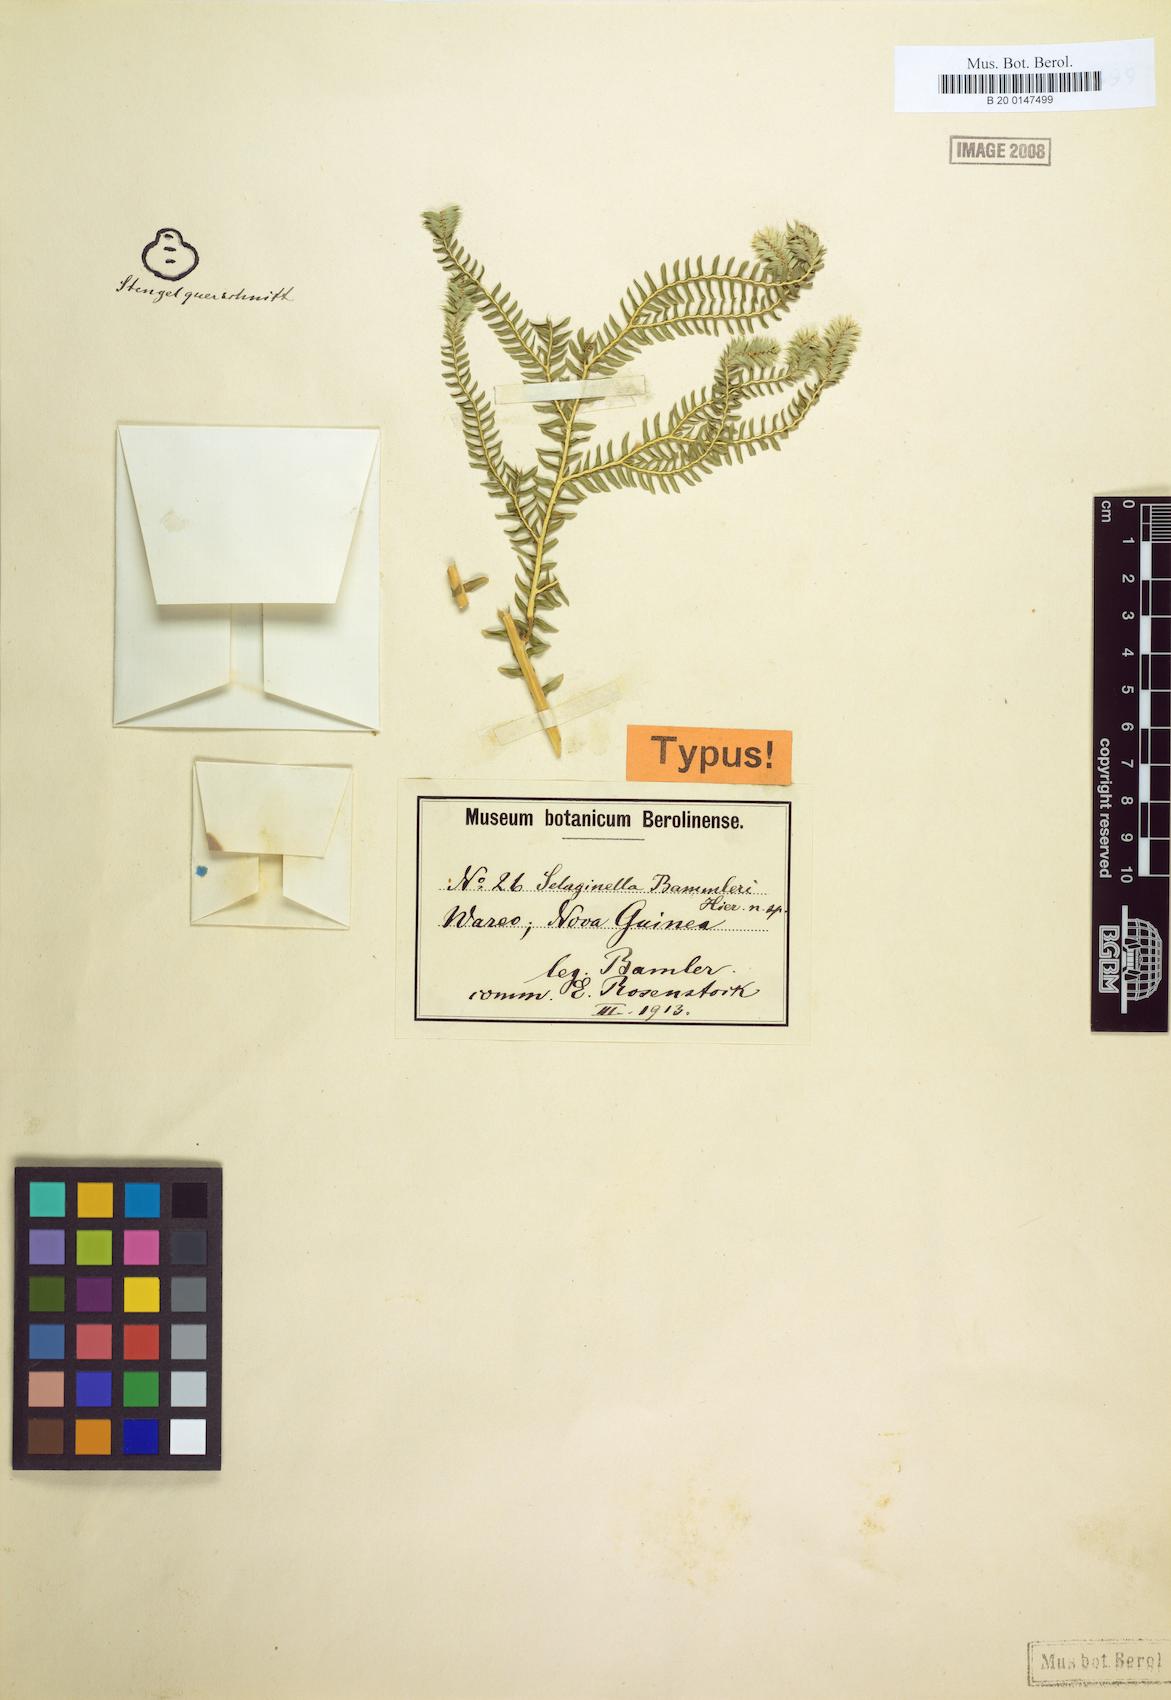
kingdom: Plantae
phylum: Tracheophyta
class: Lycopodiopsida
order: Selaginellales
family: Selaginellaceae
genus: Selaginella
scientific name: Selaginella bamleri
